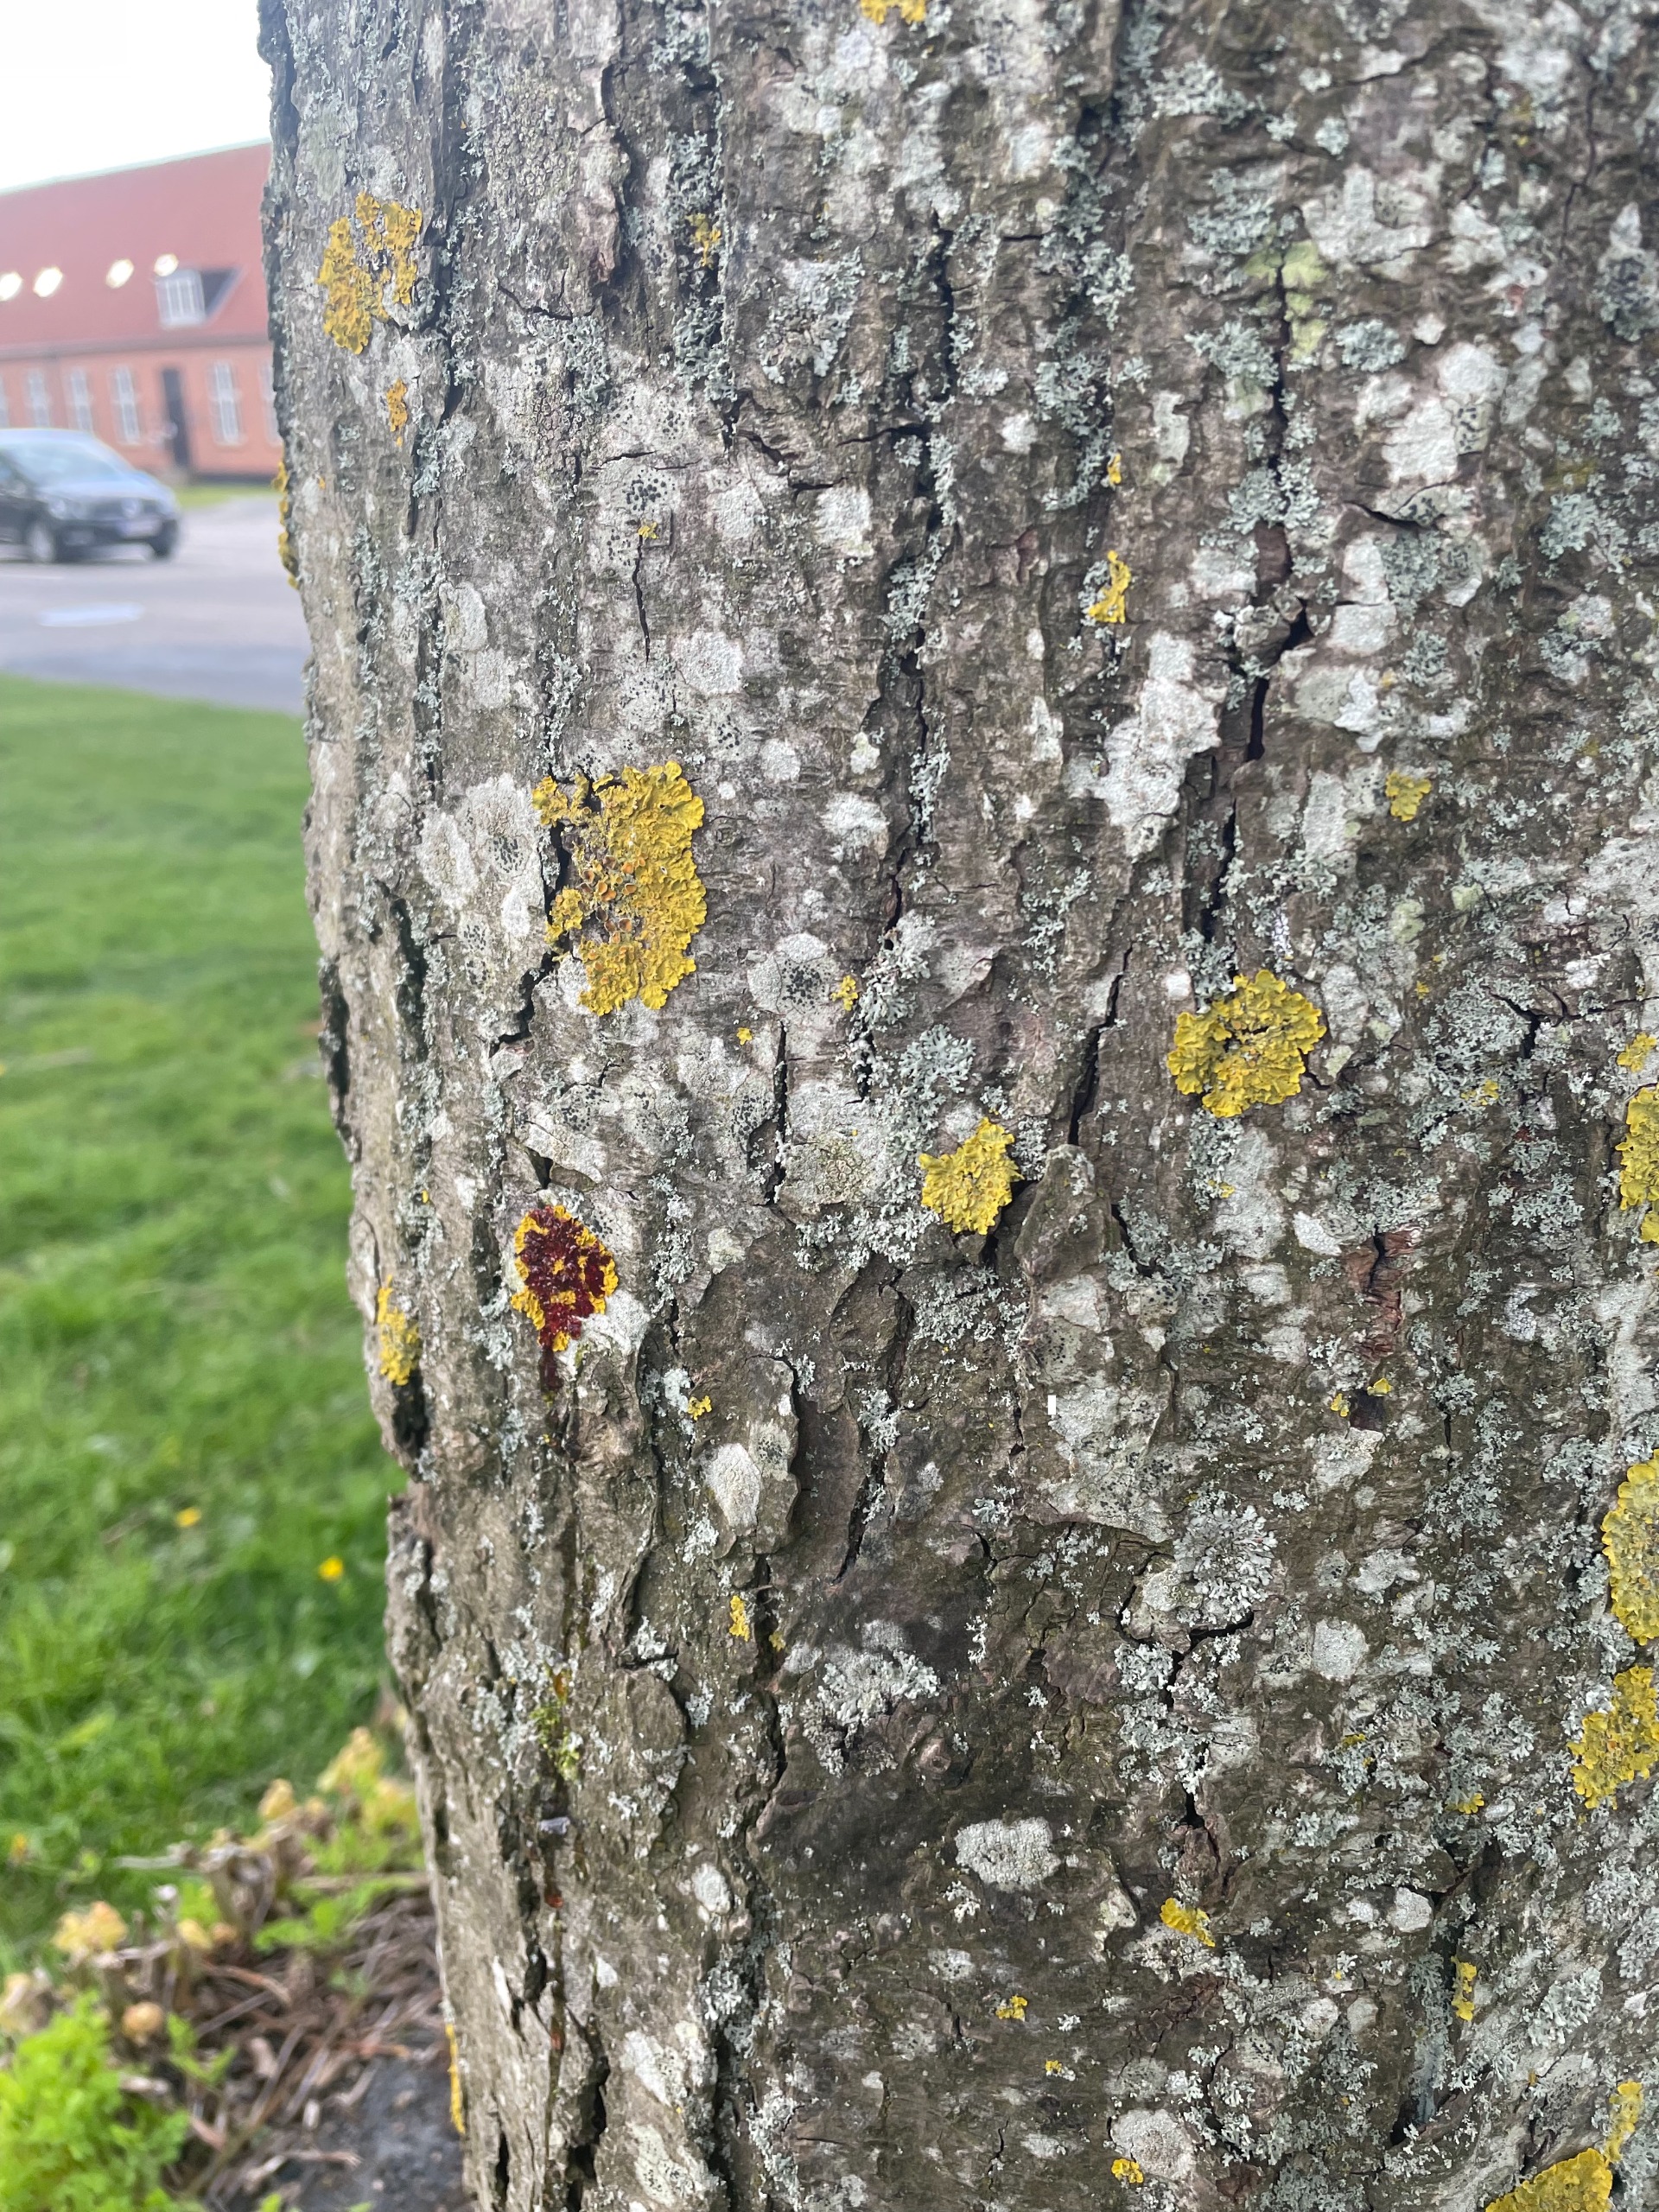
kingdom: Fungi
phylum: Ascomycota
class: Lecanoromycetes
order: Lecanorales
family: Parmeliaceae
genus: Parmelia
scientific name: Parmelia sulcata
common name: Rynket skållav
